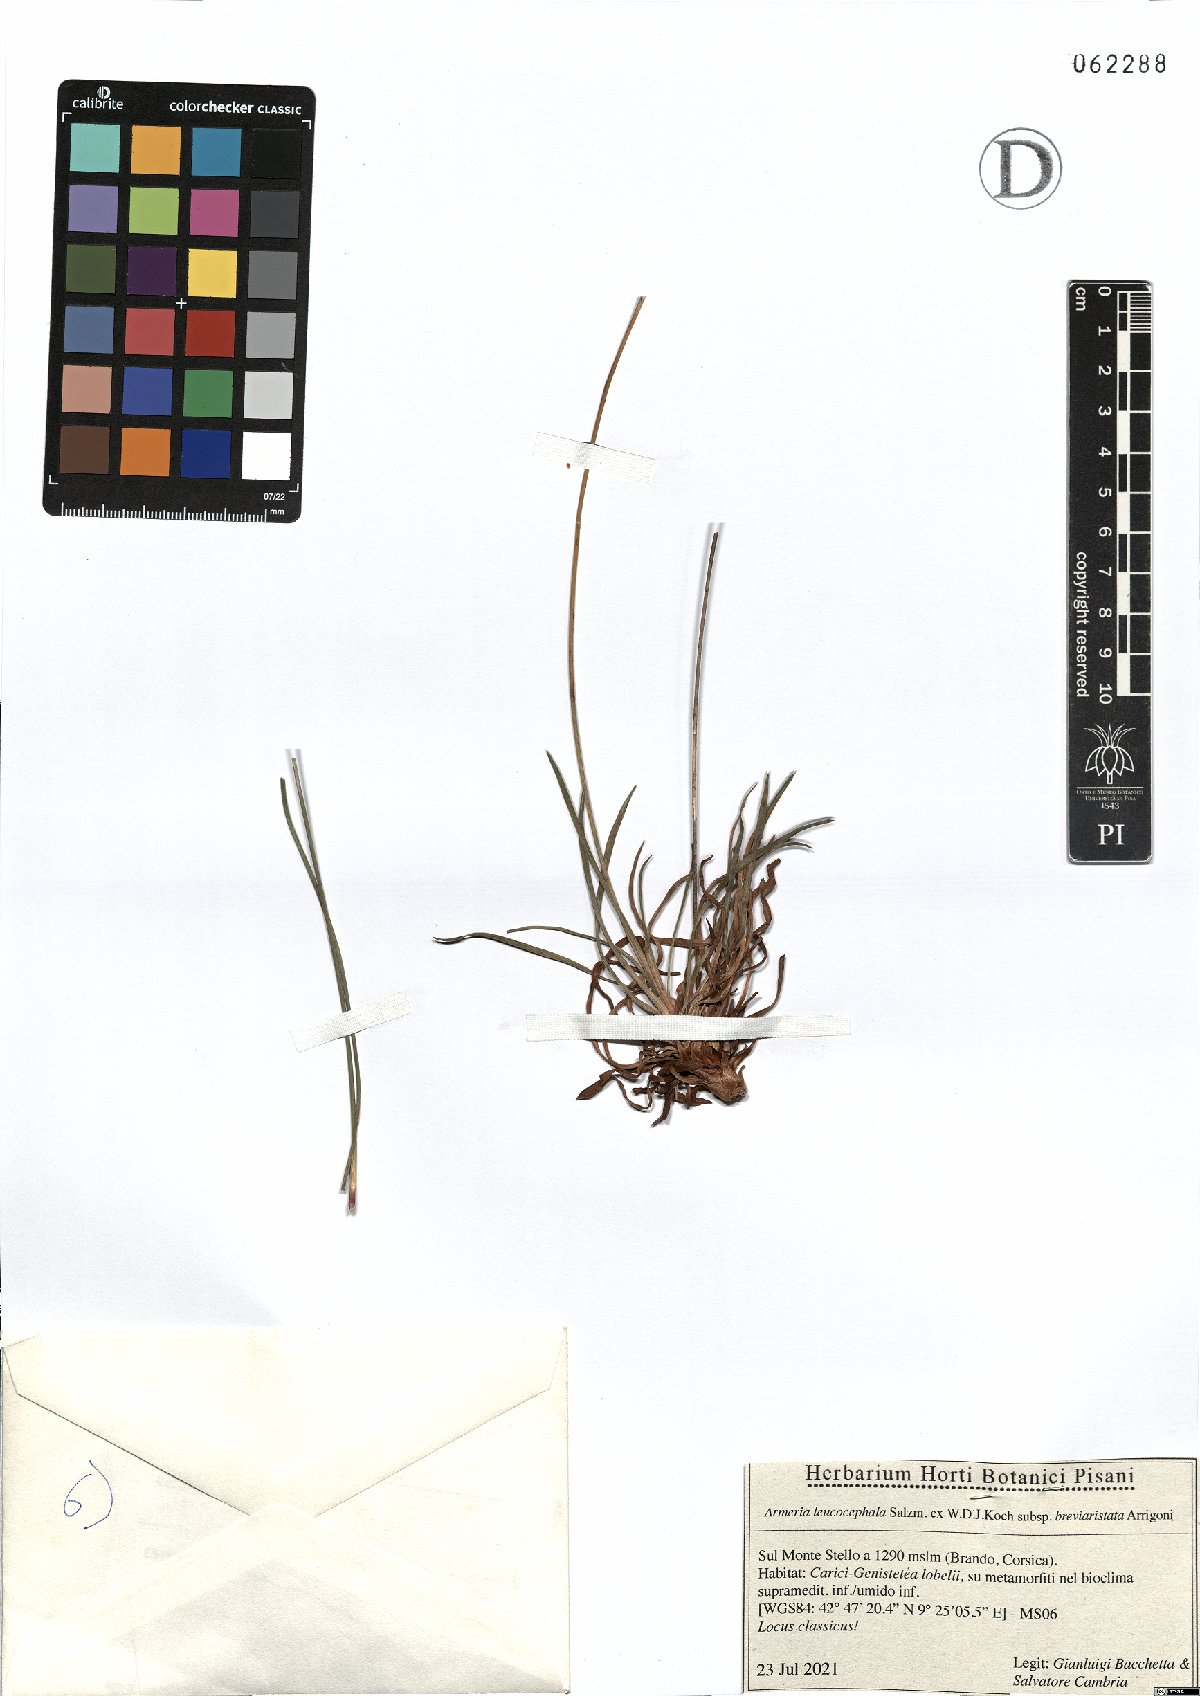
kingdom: Plantae
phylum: Tracheophyta
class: Magnoliopsida
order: Caryophyllales
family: Plumbaginaceae
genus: Armeria
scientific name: Armeria leucocephala
